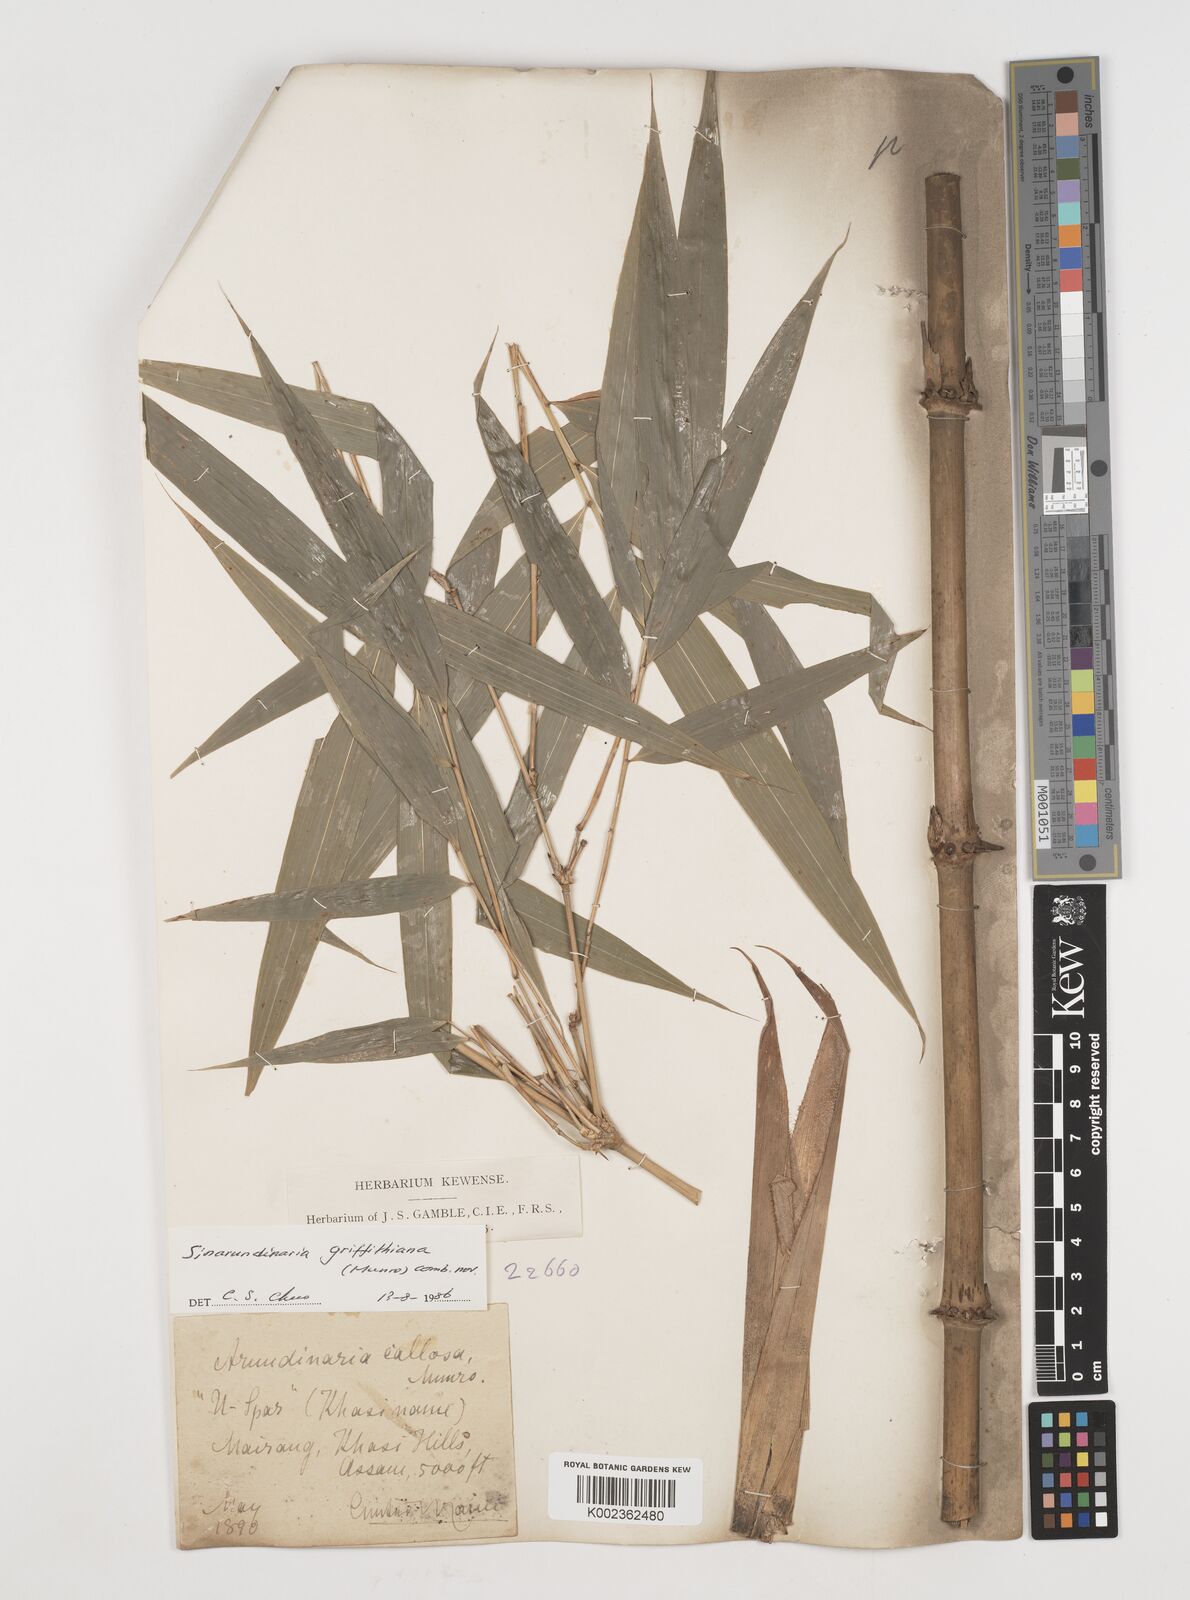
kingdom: Plantae
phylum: Tracheophyta
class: Liliopsida
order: Poales
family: Poaceae
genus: Chimonocalamus
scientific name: Chimonocalamus griffithianus
